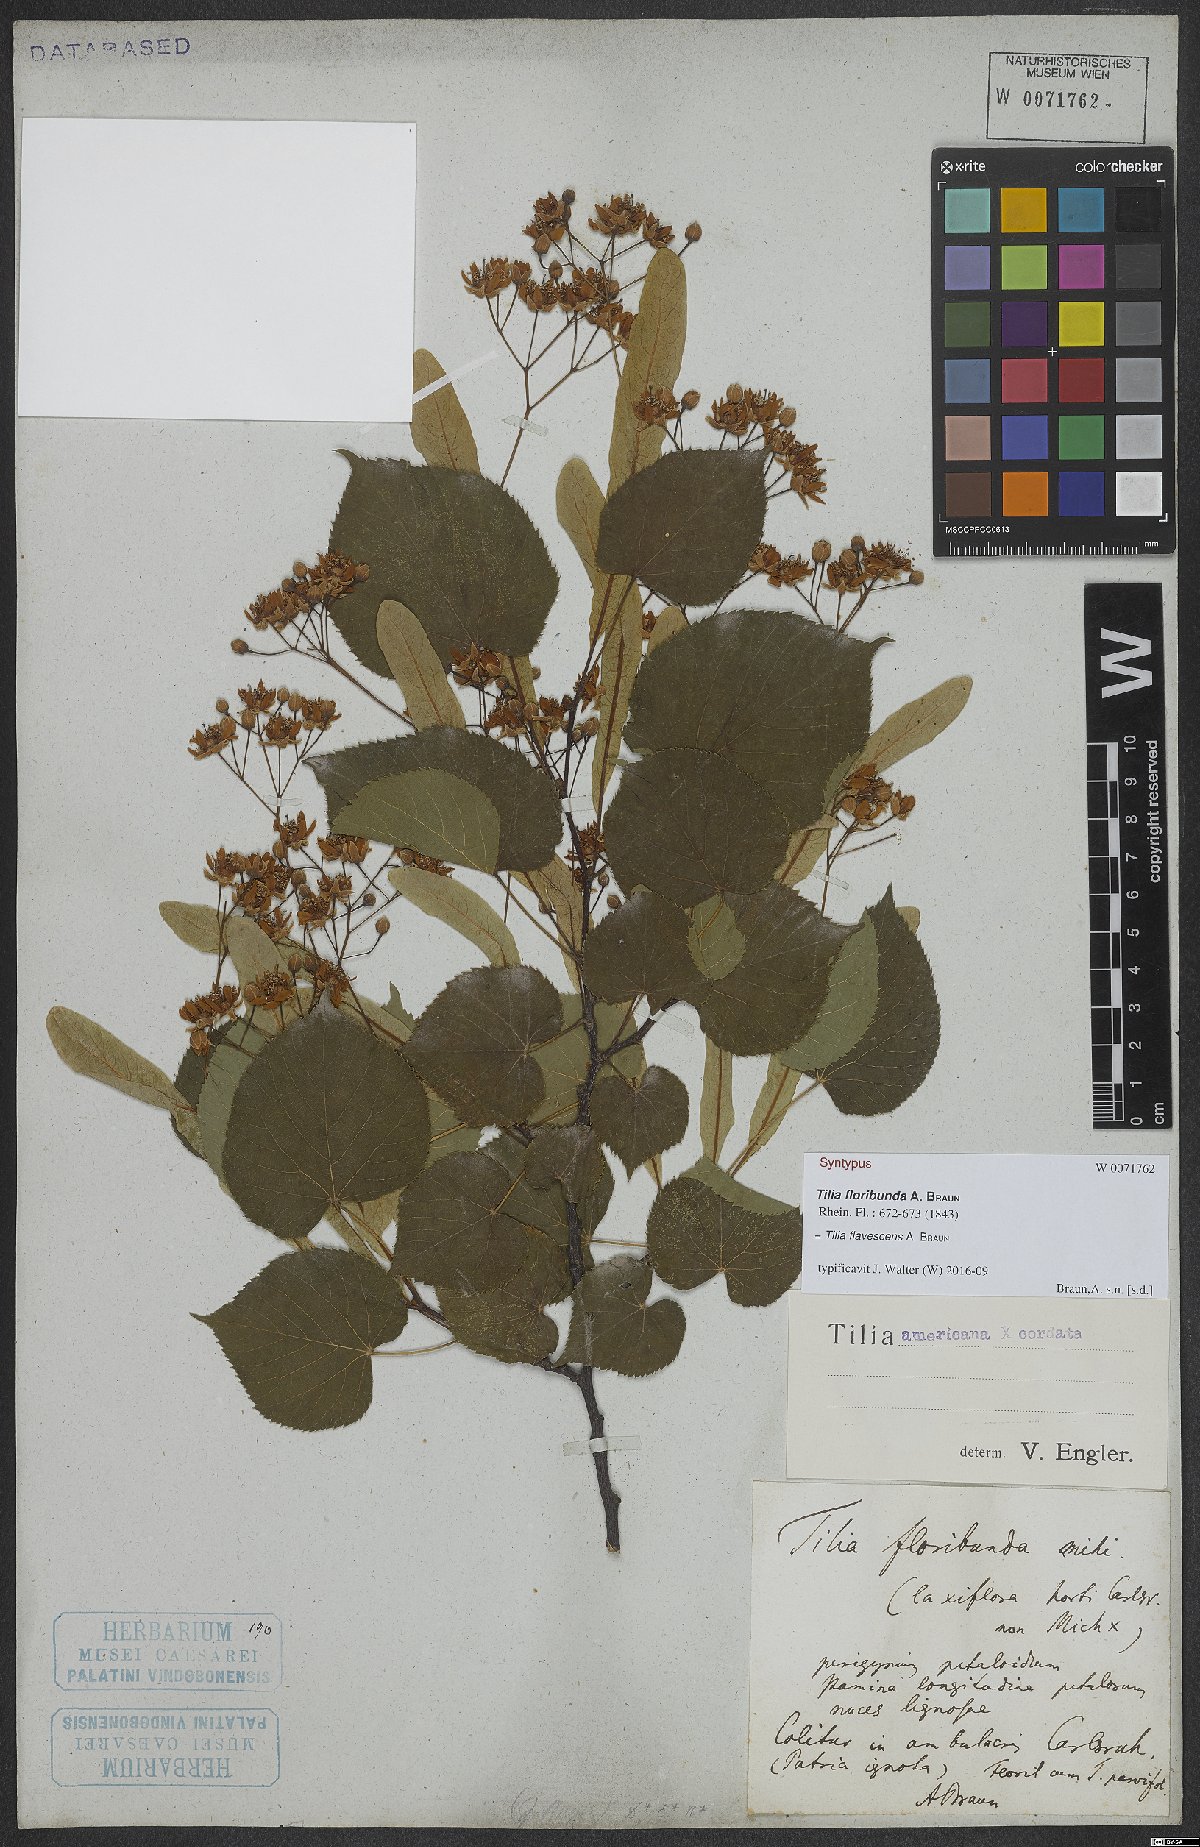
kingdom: Plantae
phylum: Tracheophyta
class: Magnoliopsida
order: Malvales
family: Tiliaceae
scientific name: Tiliaceae
